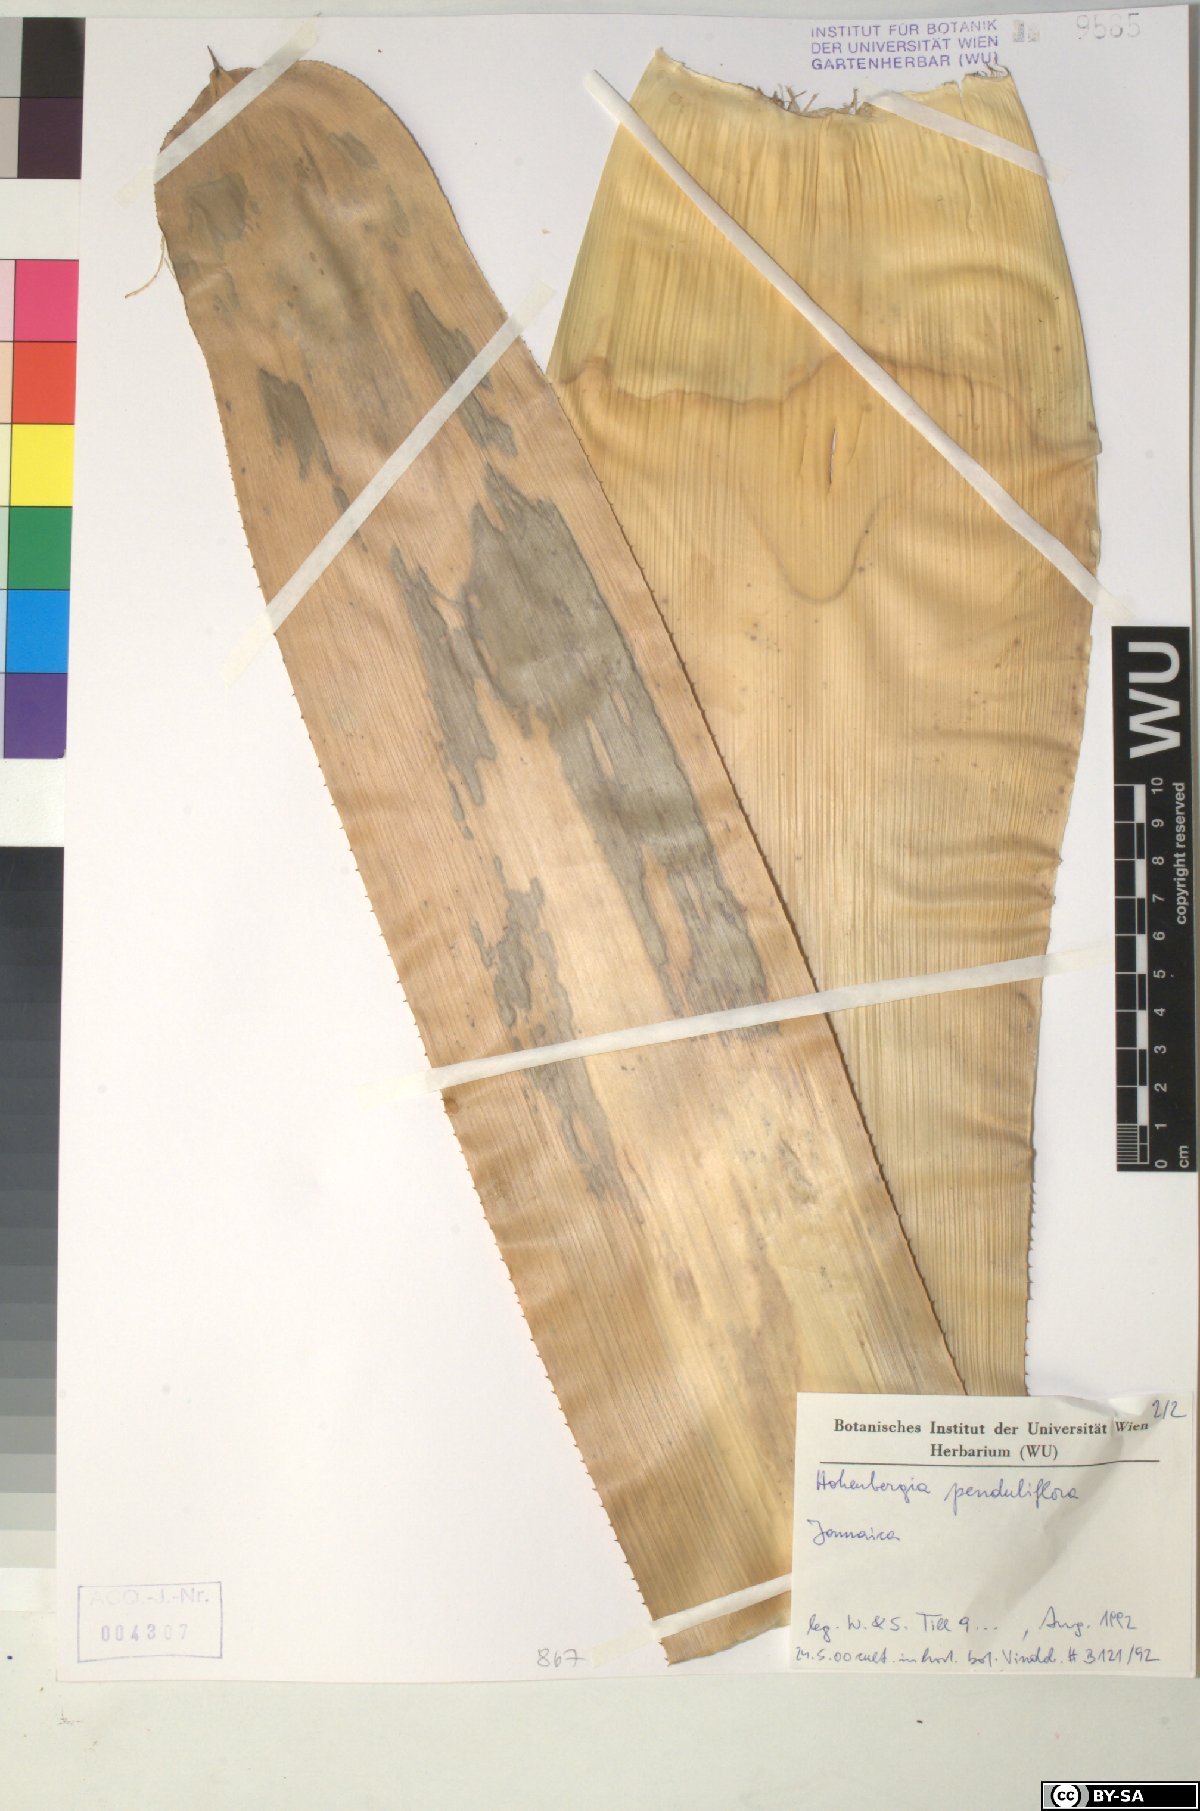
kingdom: Plantae
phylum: Tracheophyta
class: Liliopsida
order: Poales
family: Bromeliaceae
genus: Wittmackia
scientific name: Wittmackia penduliflora
